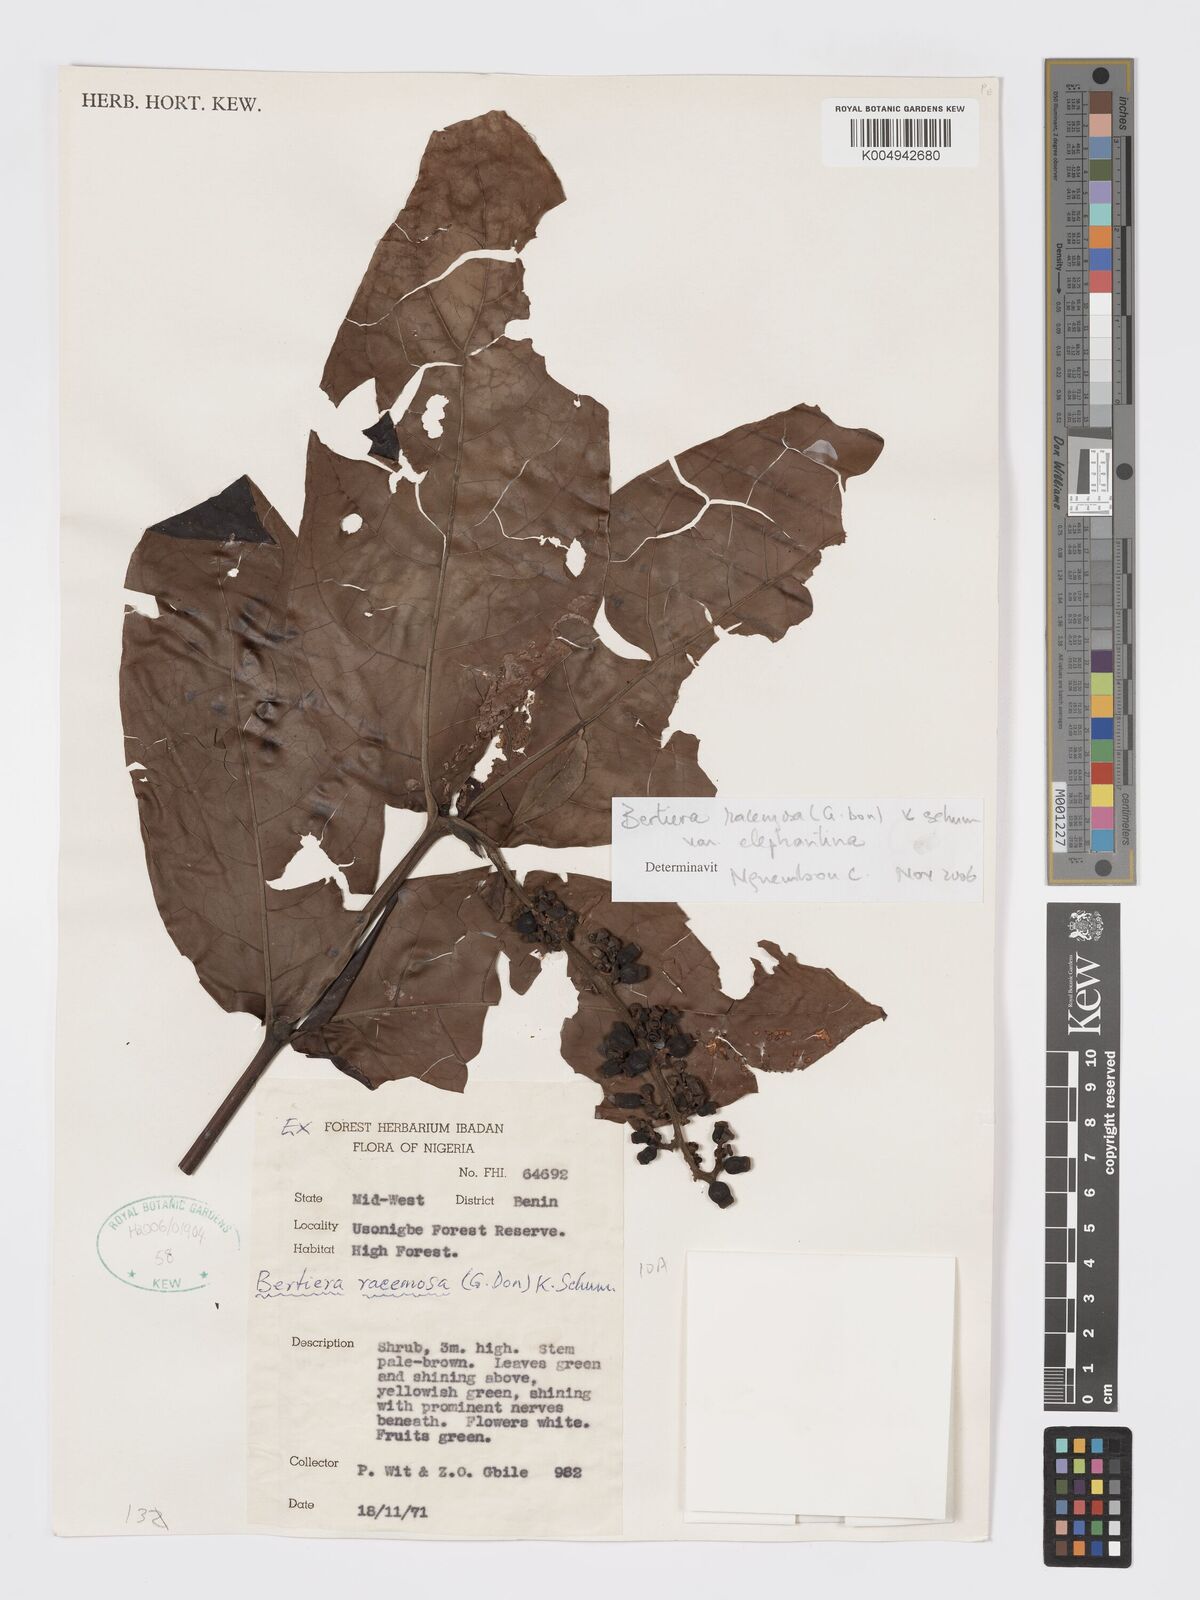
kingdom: Plantae
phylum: Tracheophyta
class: Magnoliopsida
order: Gentianales
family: Rubiaceae
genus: Bertiera
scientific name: Bertiera racemosa
